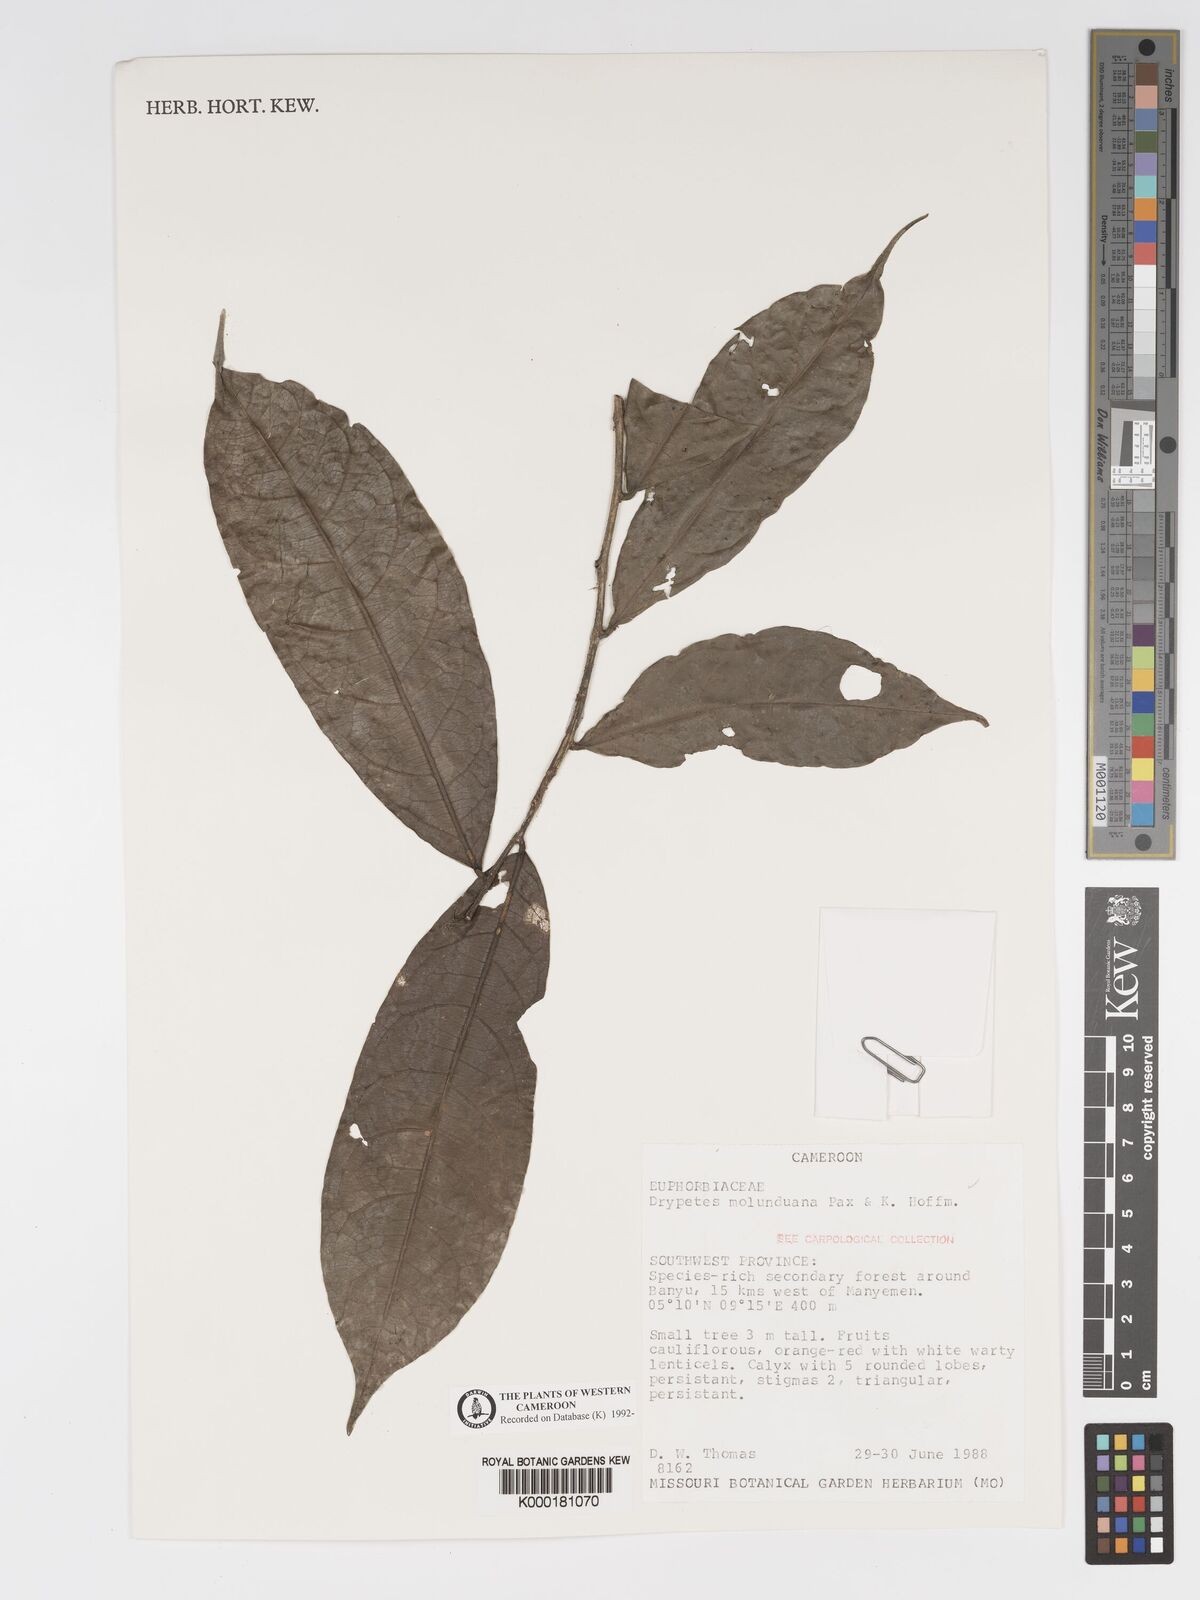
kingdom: Plantae
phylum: Tracheophyta
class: Magnoliopsida
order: Malpighiales
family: Putranjivaceae
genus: Drypetes
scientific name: Drypetes molunduana
